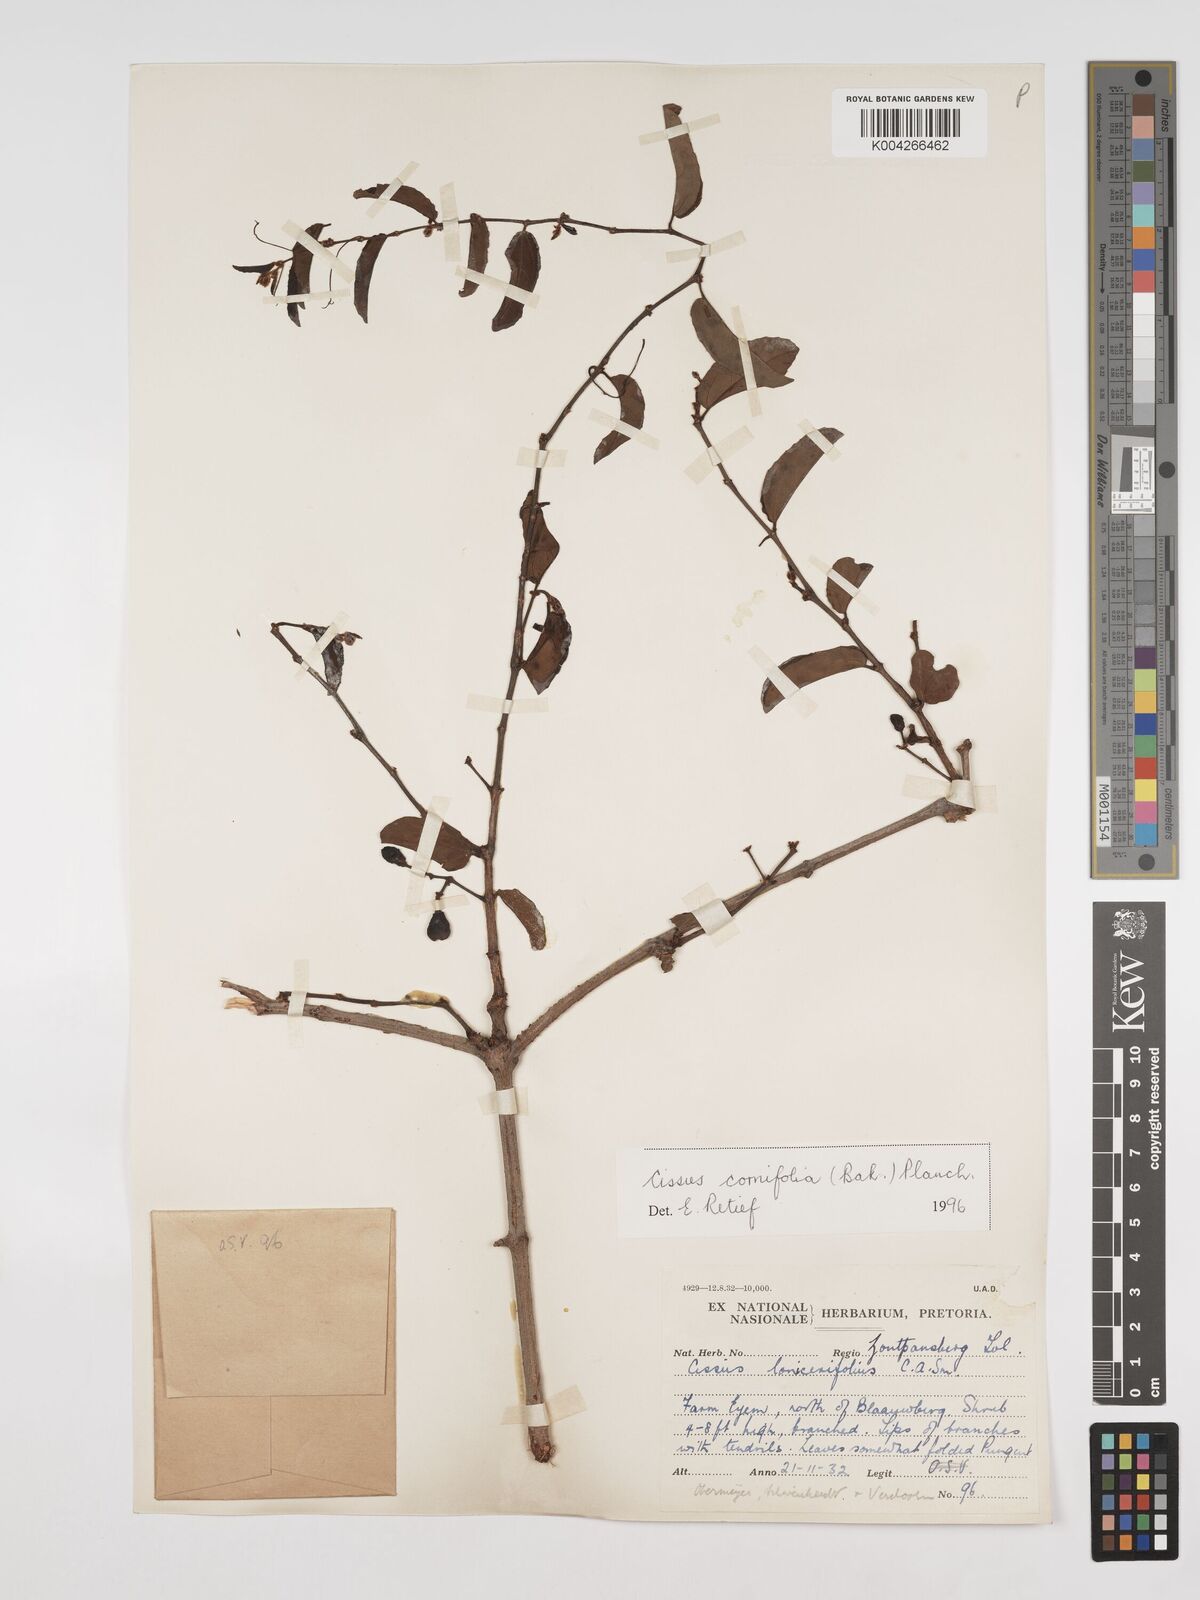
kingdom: Plantae
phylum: Tracheophyta
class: Magnoliopsida
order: Vitales
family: Vitaceae
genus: Cissus
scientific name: Cissus cornifolia
